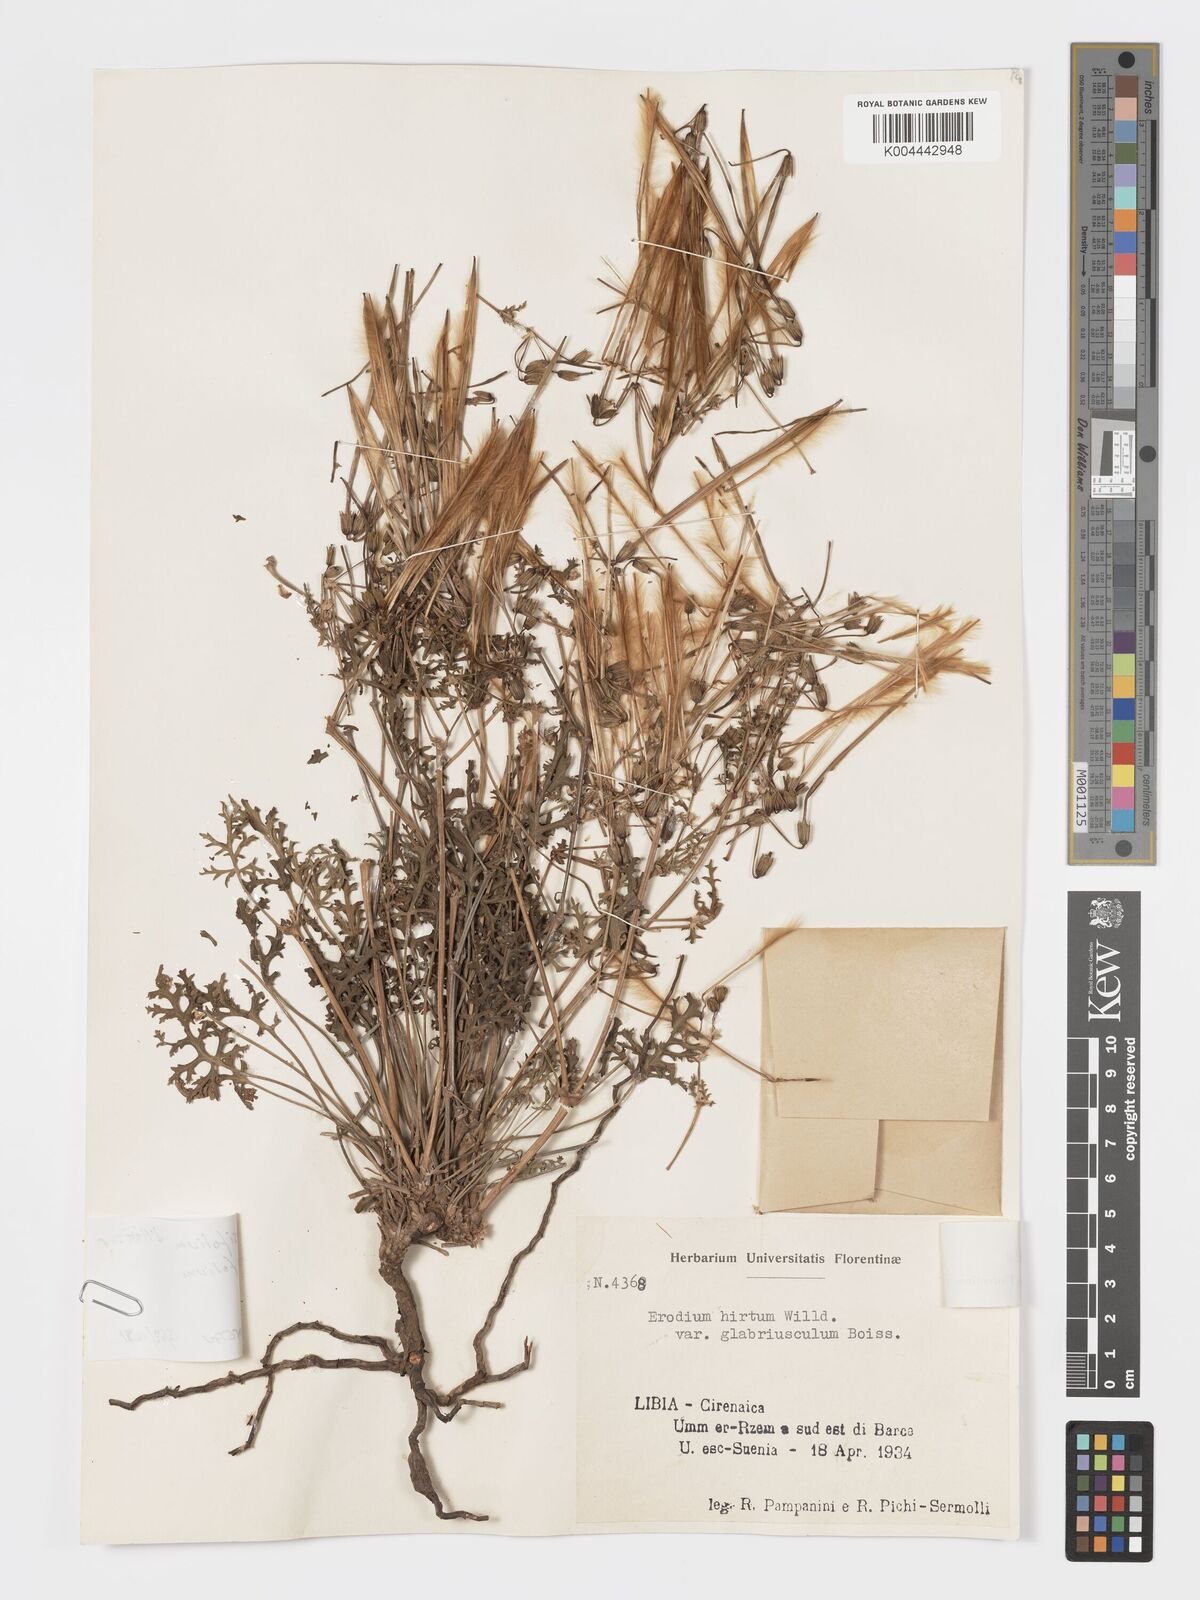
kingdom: Plantae
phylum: Tracheophyta
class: Magnoliopsida
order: Geraniales
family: Geraniaceae
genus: Erodium
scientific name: Erodium crassifolium
